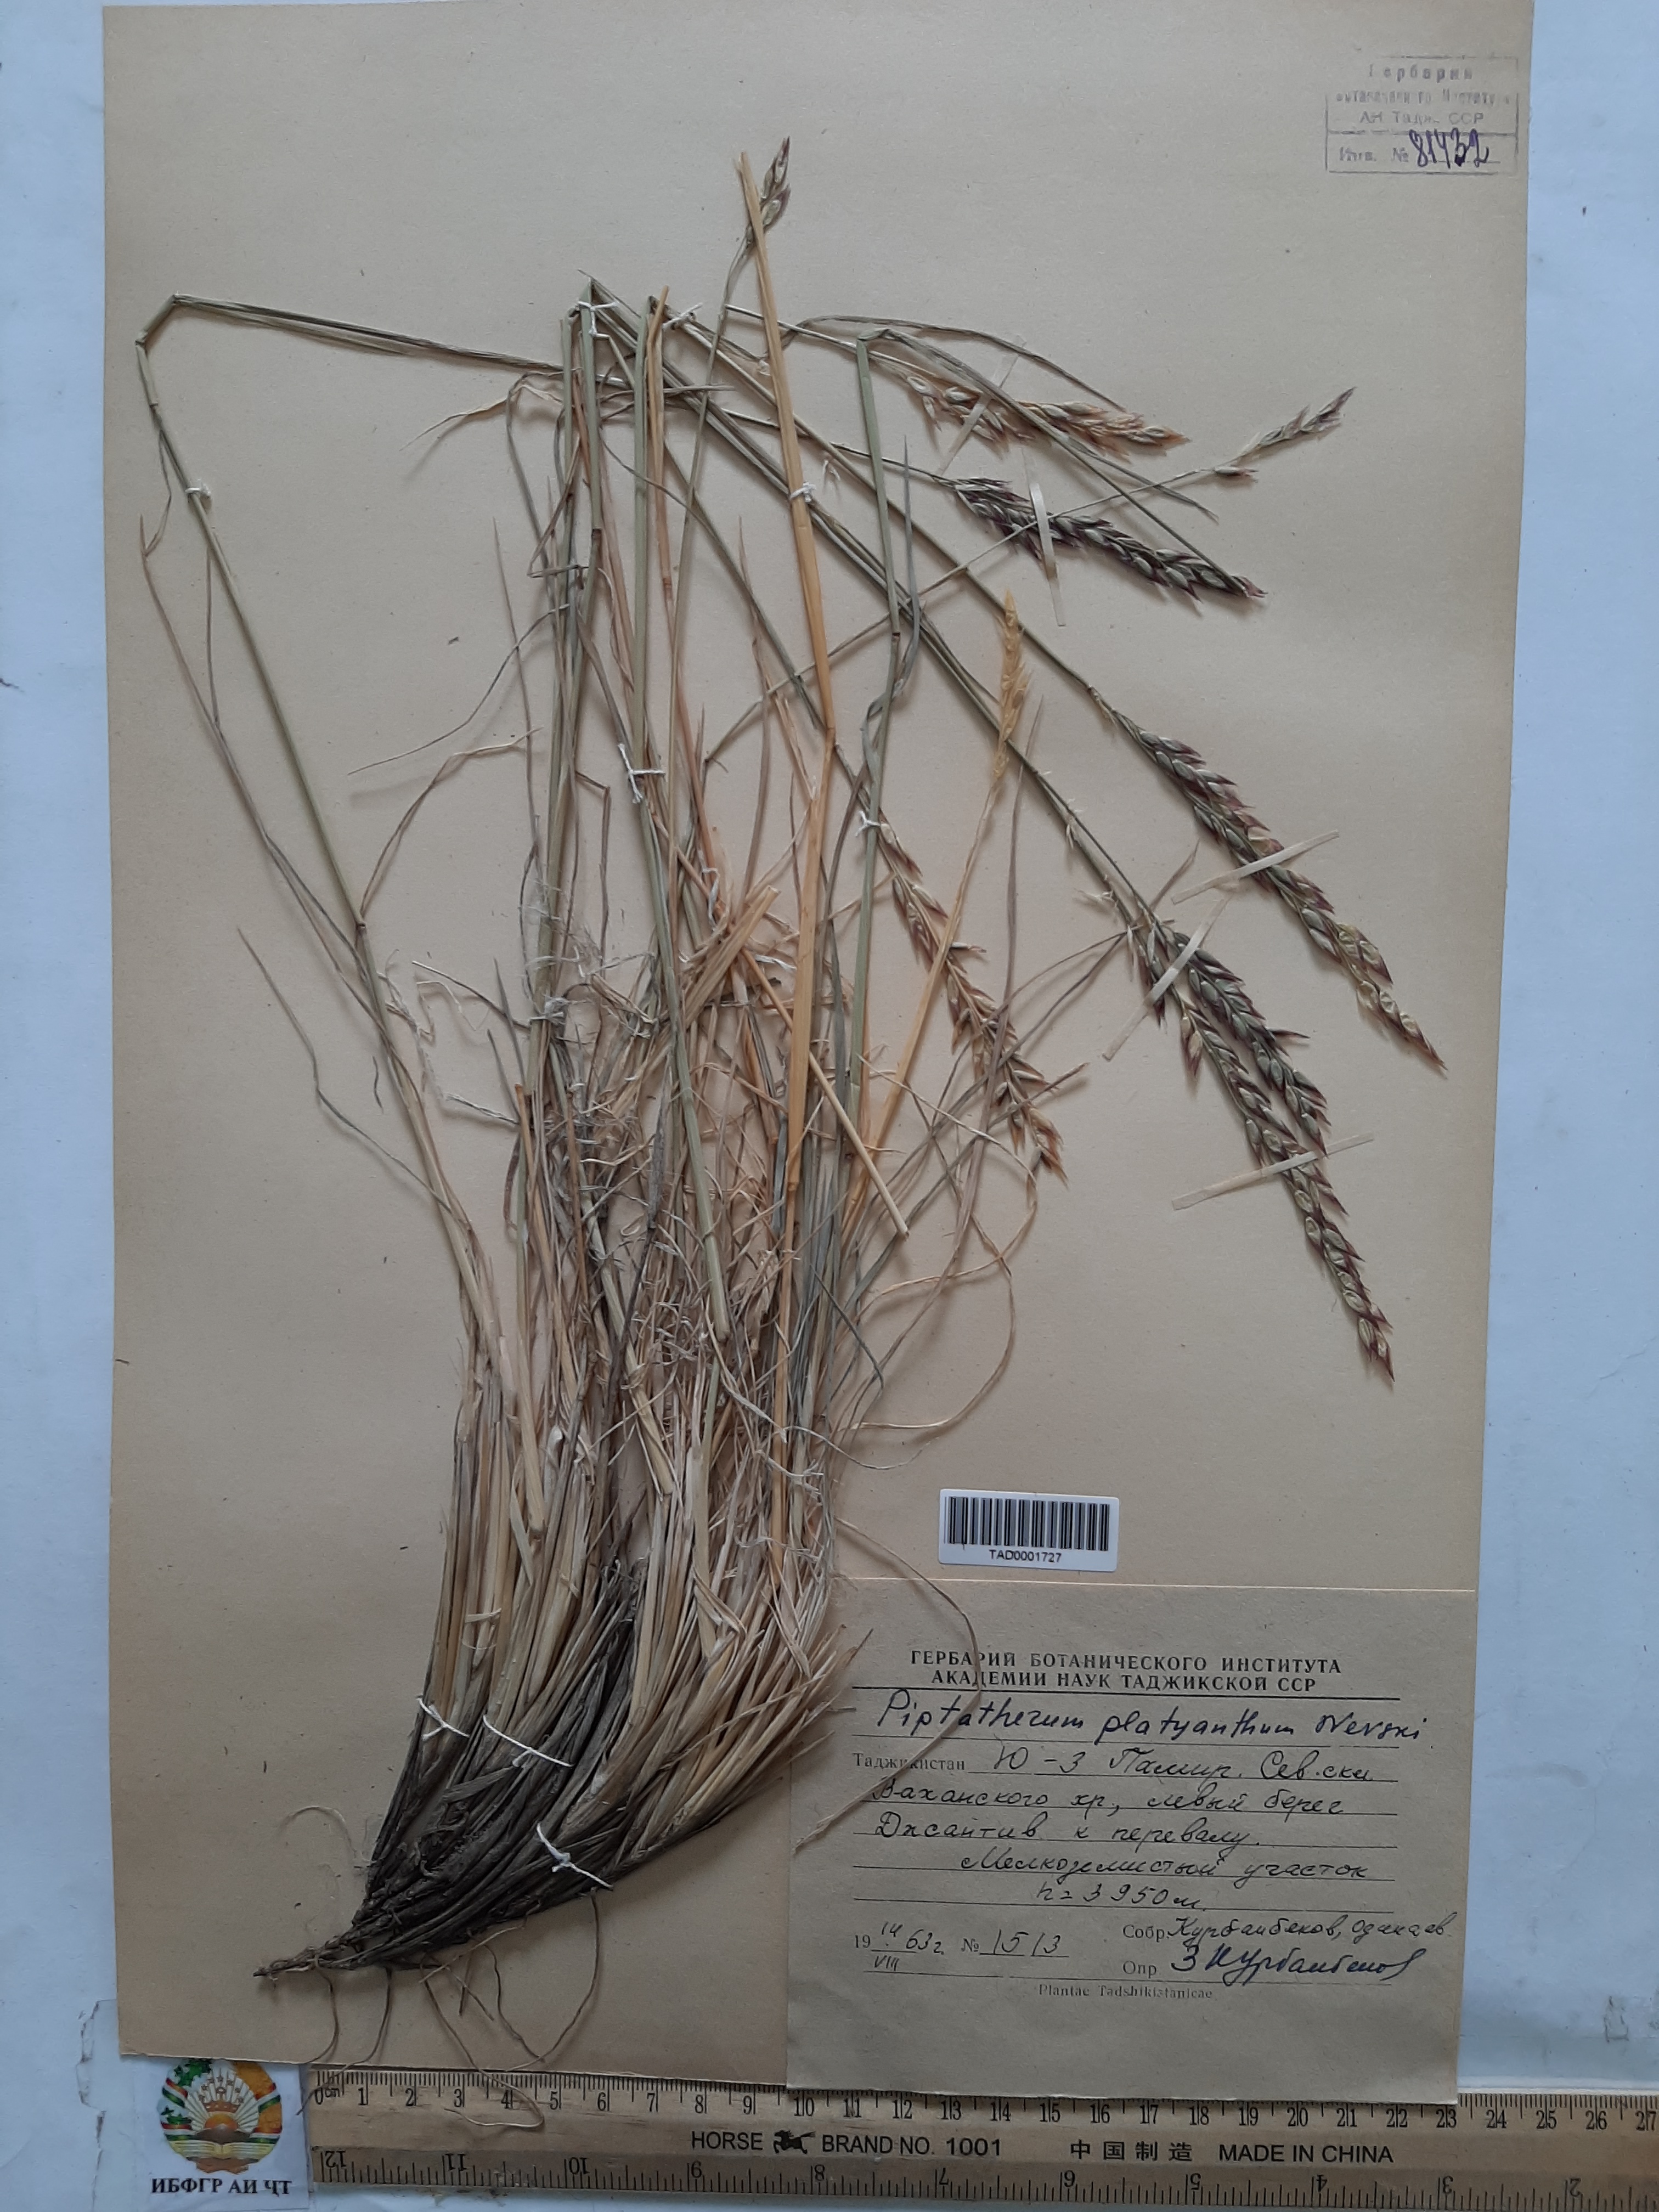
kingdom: Plantae
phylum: Tracheophyta
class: Liliopsida
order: Poales
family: Poaceae
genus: Piptatherum
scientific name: Piptatherum pamiralaicum
